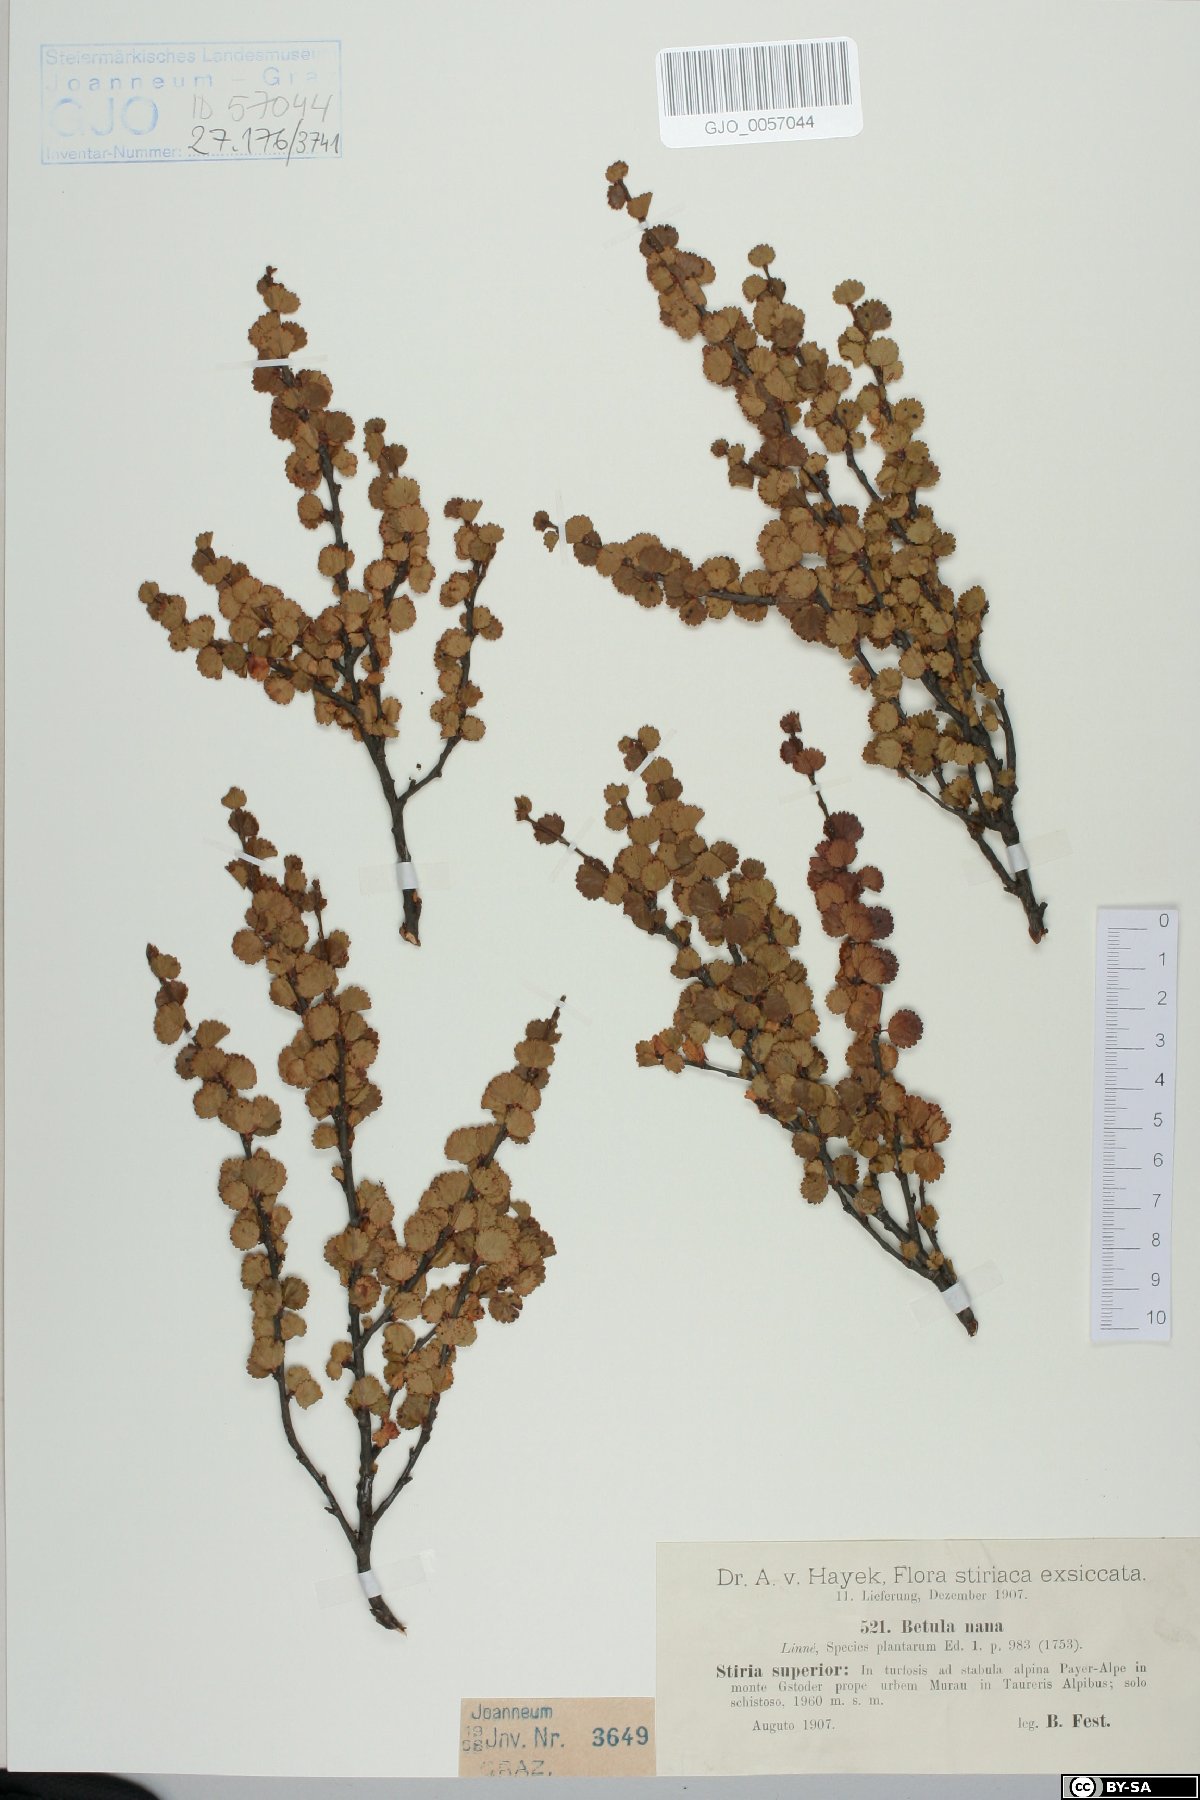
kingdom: Plantae
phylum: Tracheophyta
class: Magnoliopsida
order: Fagales
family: Betulaceae
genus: Betula
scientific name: Betula nana
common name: Arctic dwarf birch
